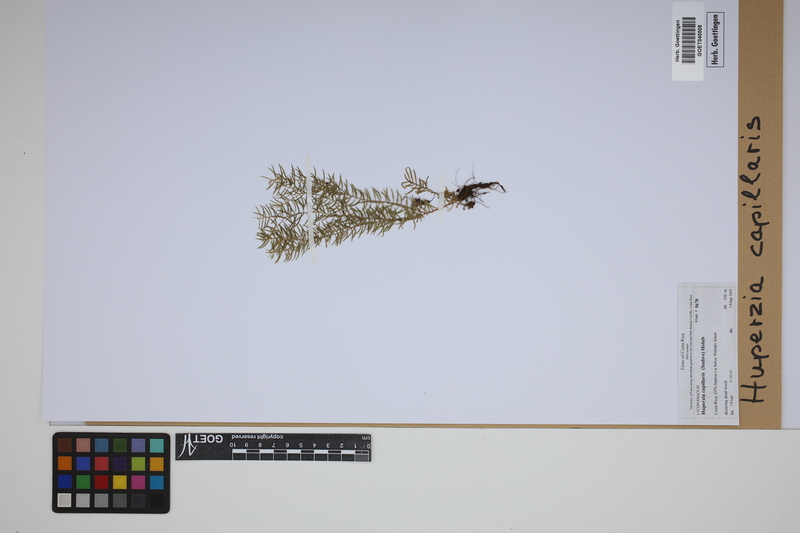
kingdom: Plantae
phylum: Tracheophyta
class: Lycopodiopsida
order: Lycopodiales
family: Lycopodiaceae
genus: Phlegmariurus
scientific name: Phlegmariurus capillaris
